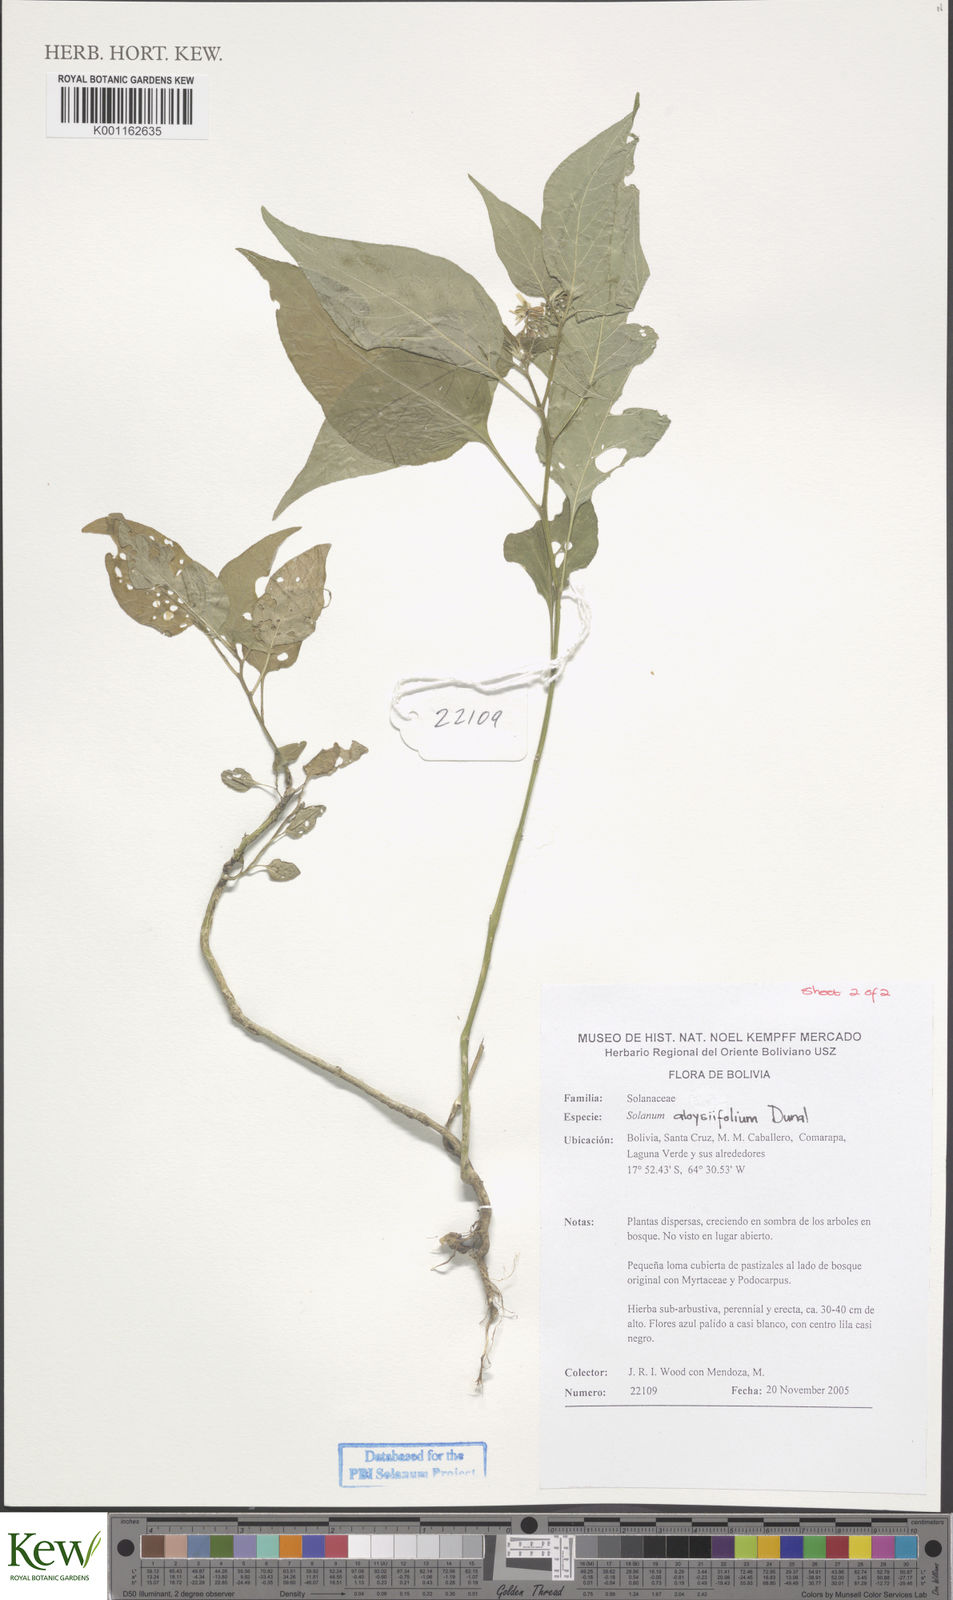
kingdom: Plantae
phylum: Tracheophyta
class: Magnoliopsida
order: Solanales
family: Solanaceae
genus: Solanum
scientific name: Solanum zuloagae
